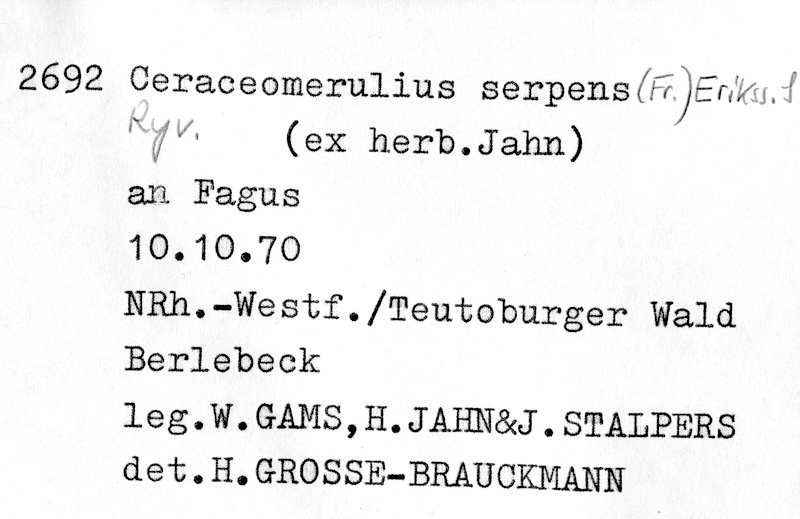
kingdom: Plantae
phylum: Tracheophyta
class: Magnoliopsida
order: Fagales
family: Fagaceae
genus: Fagus
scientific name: Fagus sylvatica
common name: Beech
